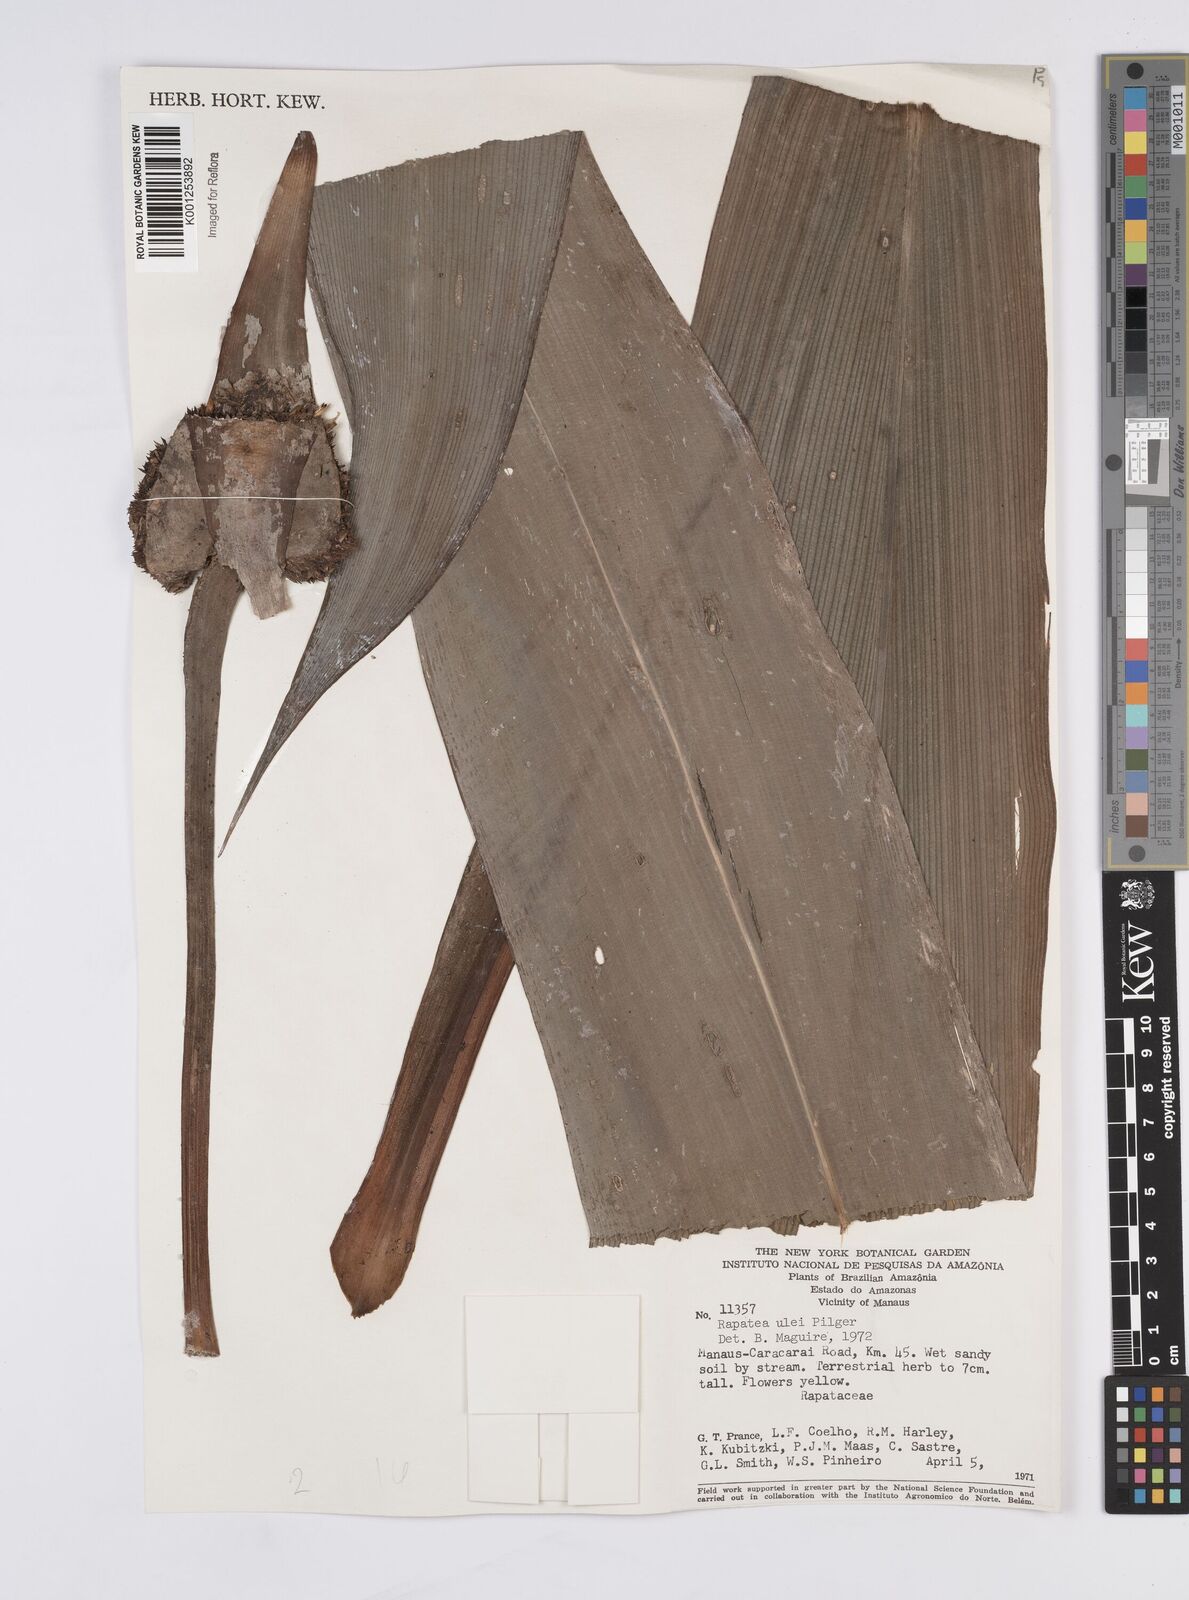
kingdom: Plantae
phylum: Tracheophyta
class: Liliopsida
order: Poales
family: Rapateaceae
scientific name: Rapateaceae
